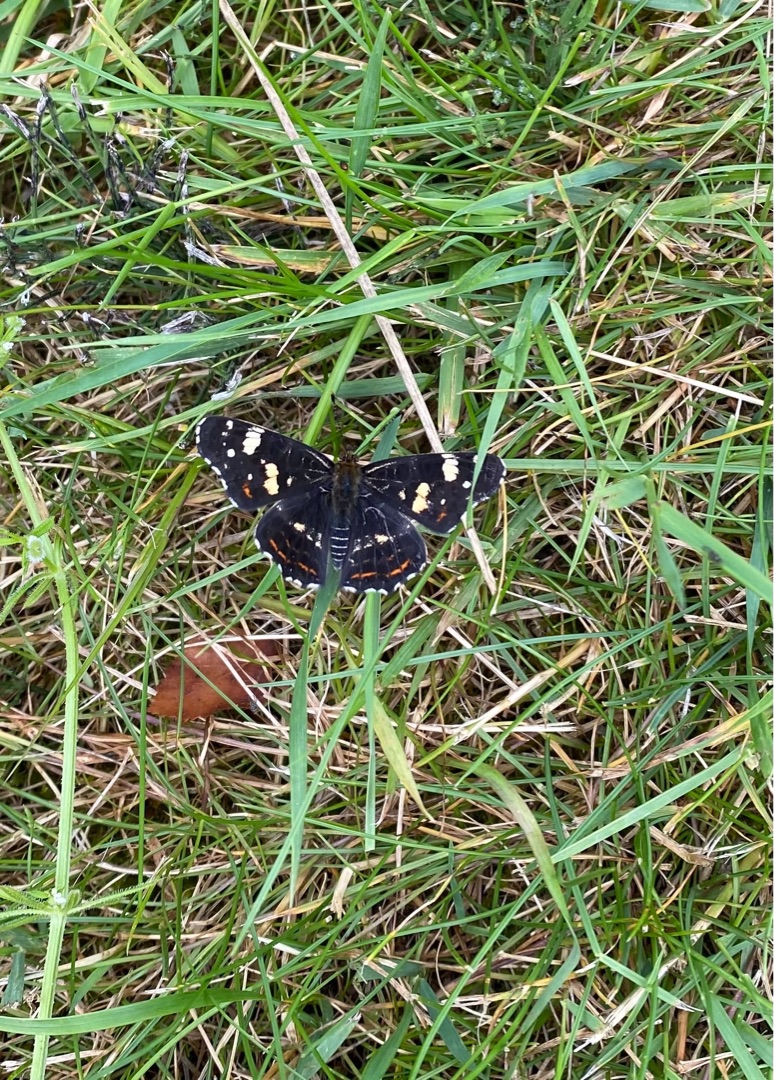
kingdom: Animalia
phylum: Arthropoda
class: Insecta
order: Lepidoptera
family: Nymphalidae
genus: Araschnia
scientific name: Araschnia levana
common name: Nældesommerfugl
